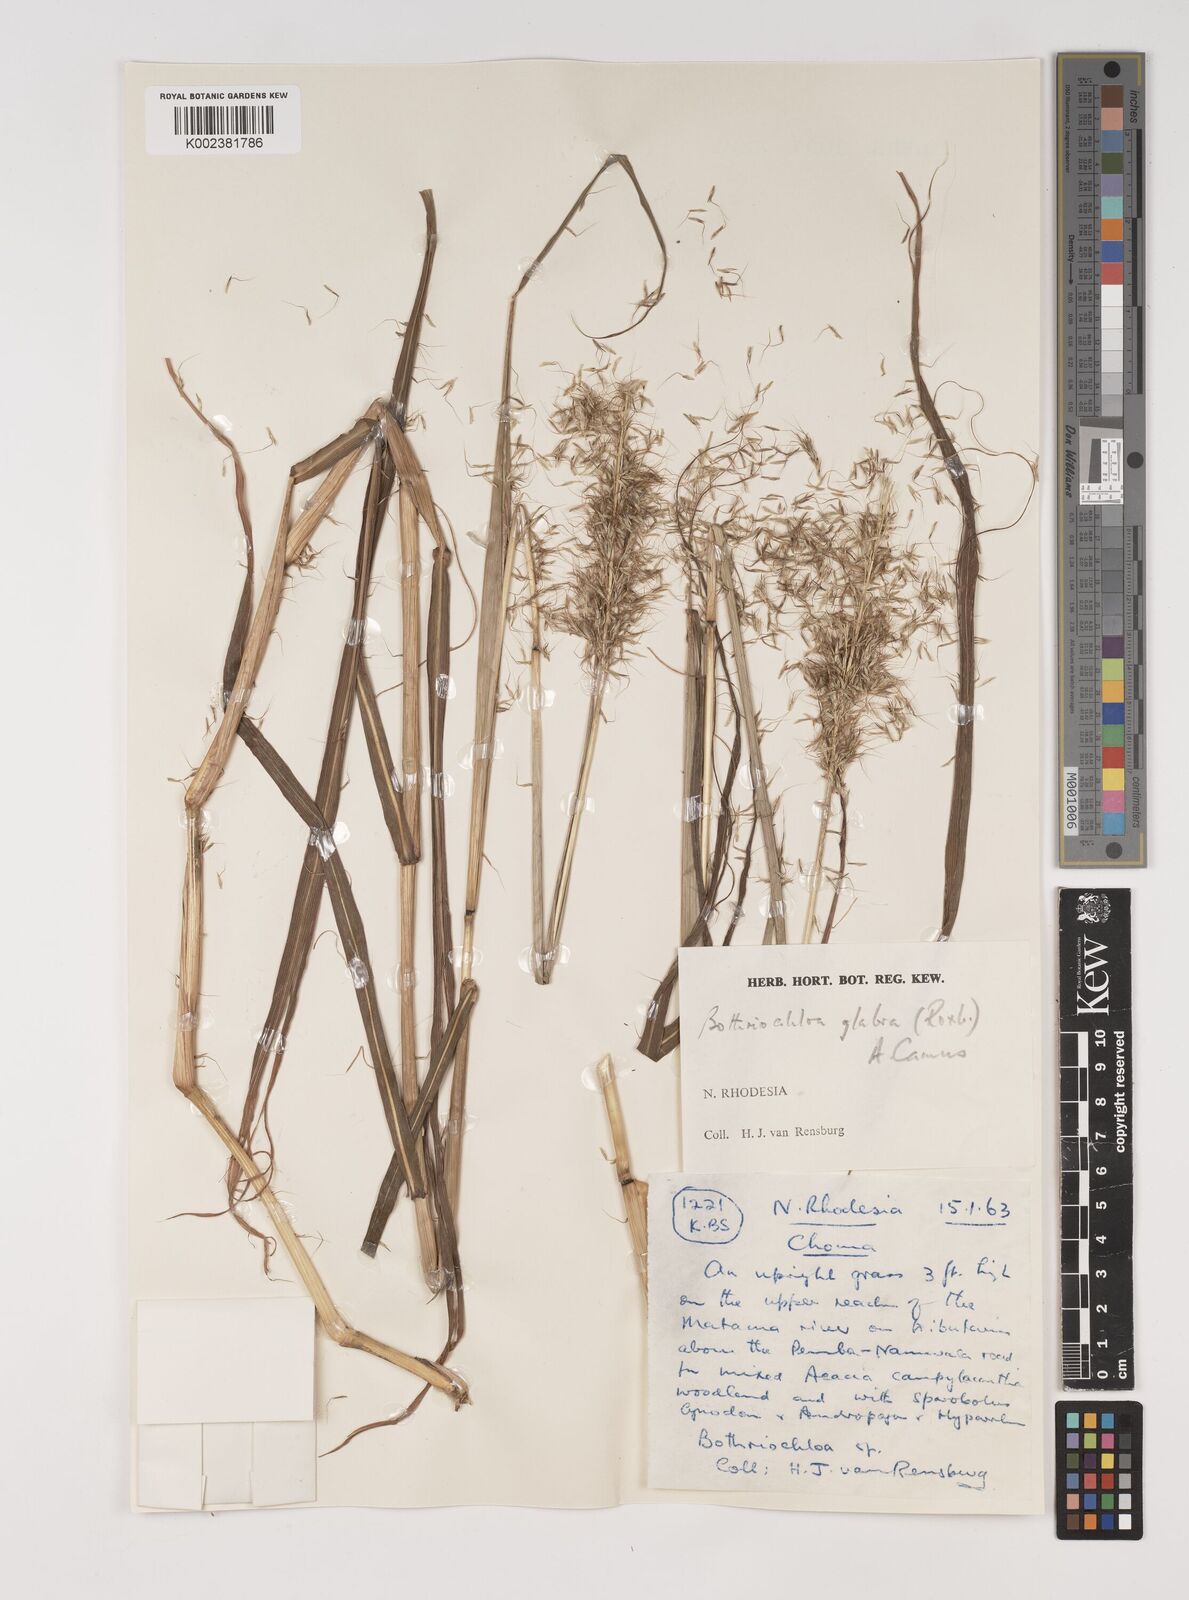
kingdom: Plantae
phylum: Tracheophyta
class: Liliopsida
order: Poales
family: Poaceae
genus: Bothriochloa
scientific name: Bothriochloa bladhii
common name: Caucasian bluestem
